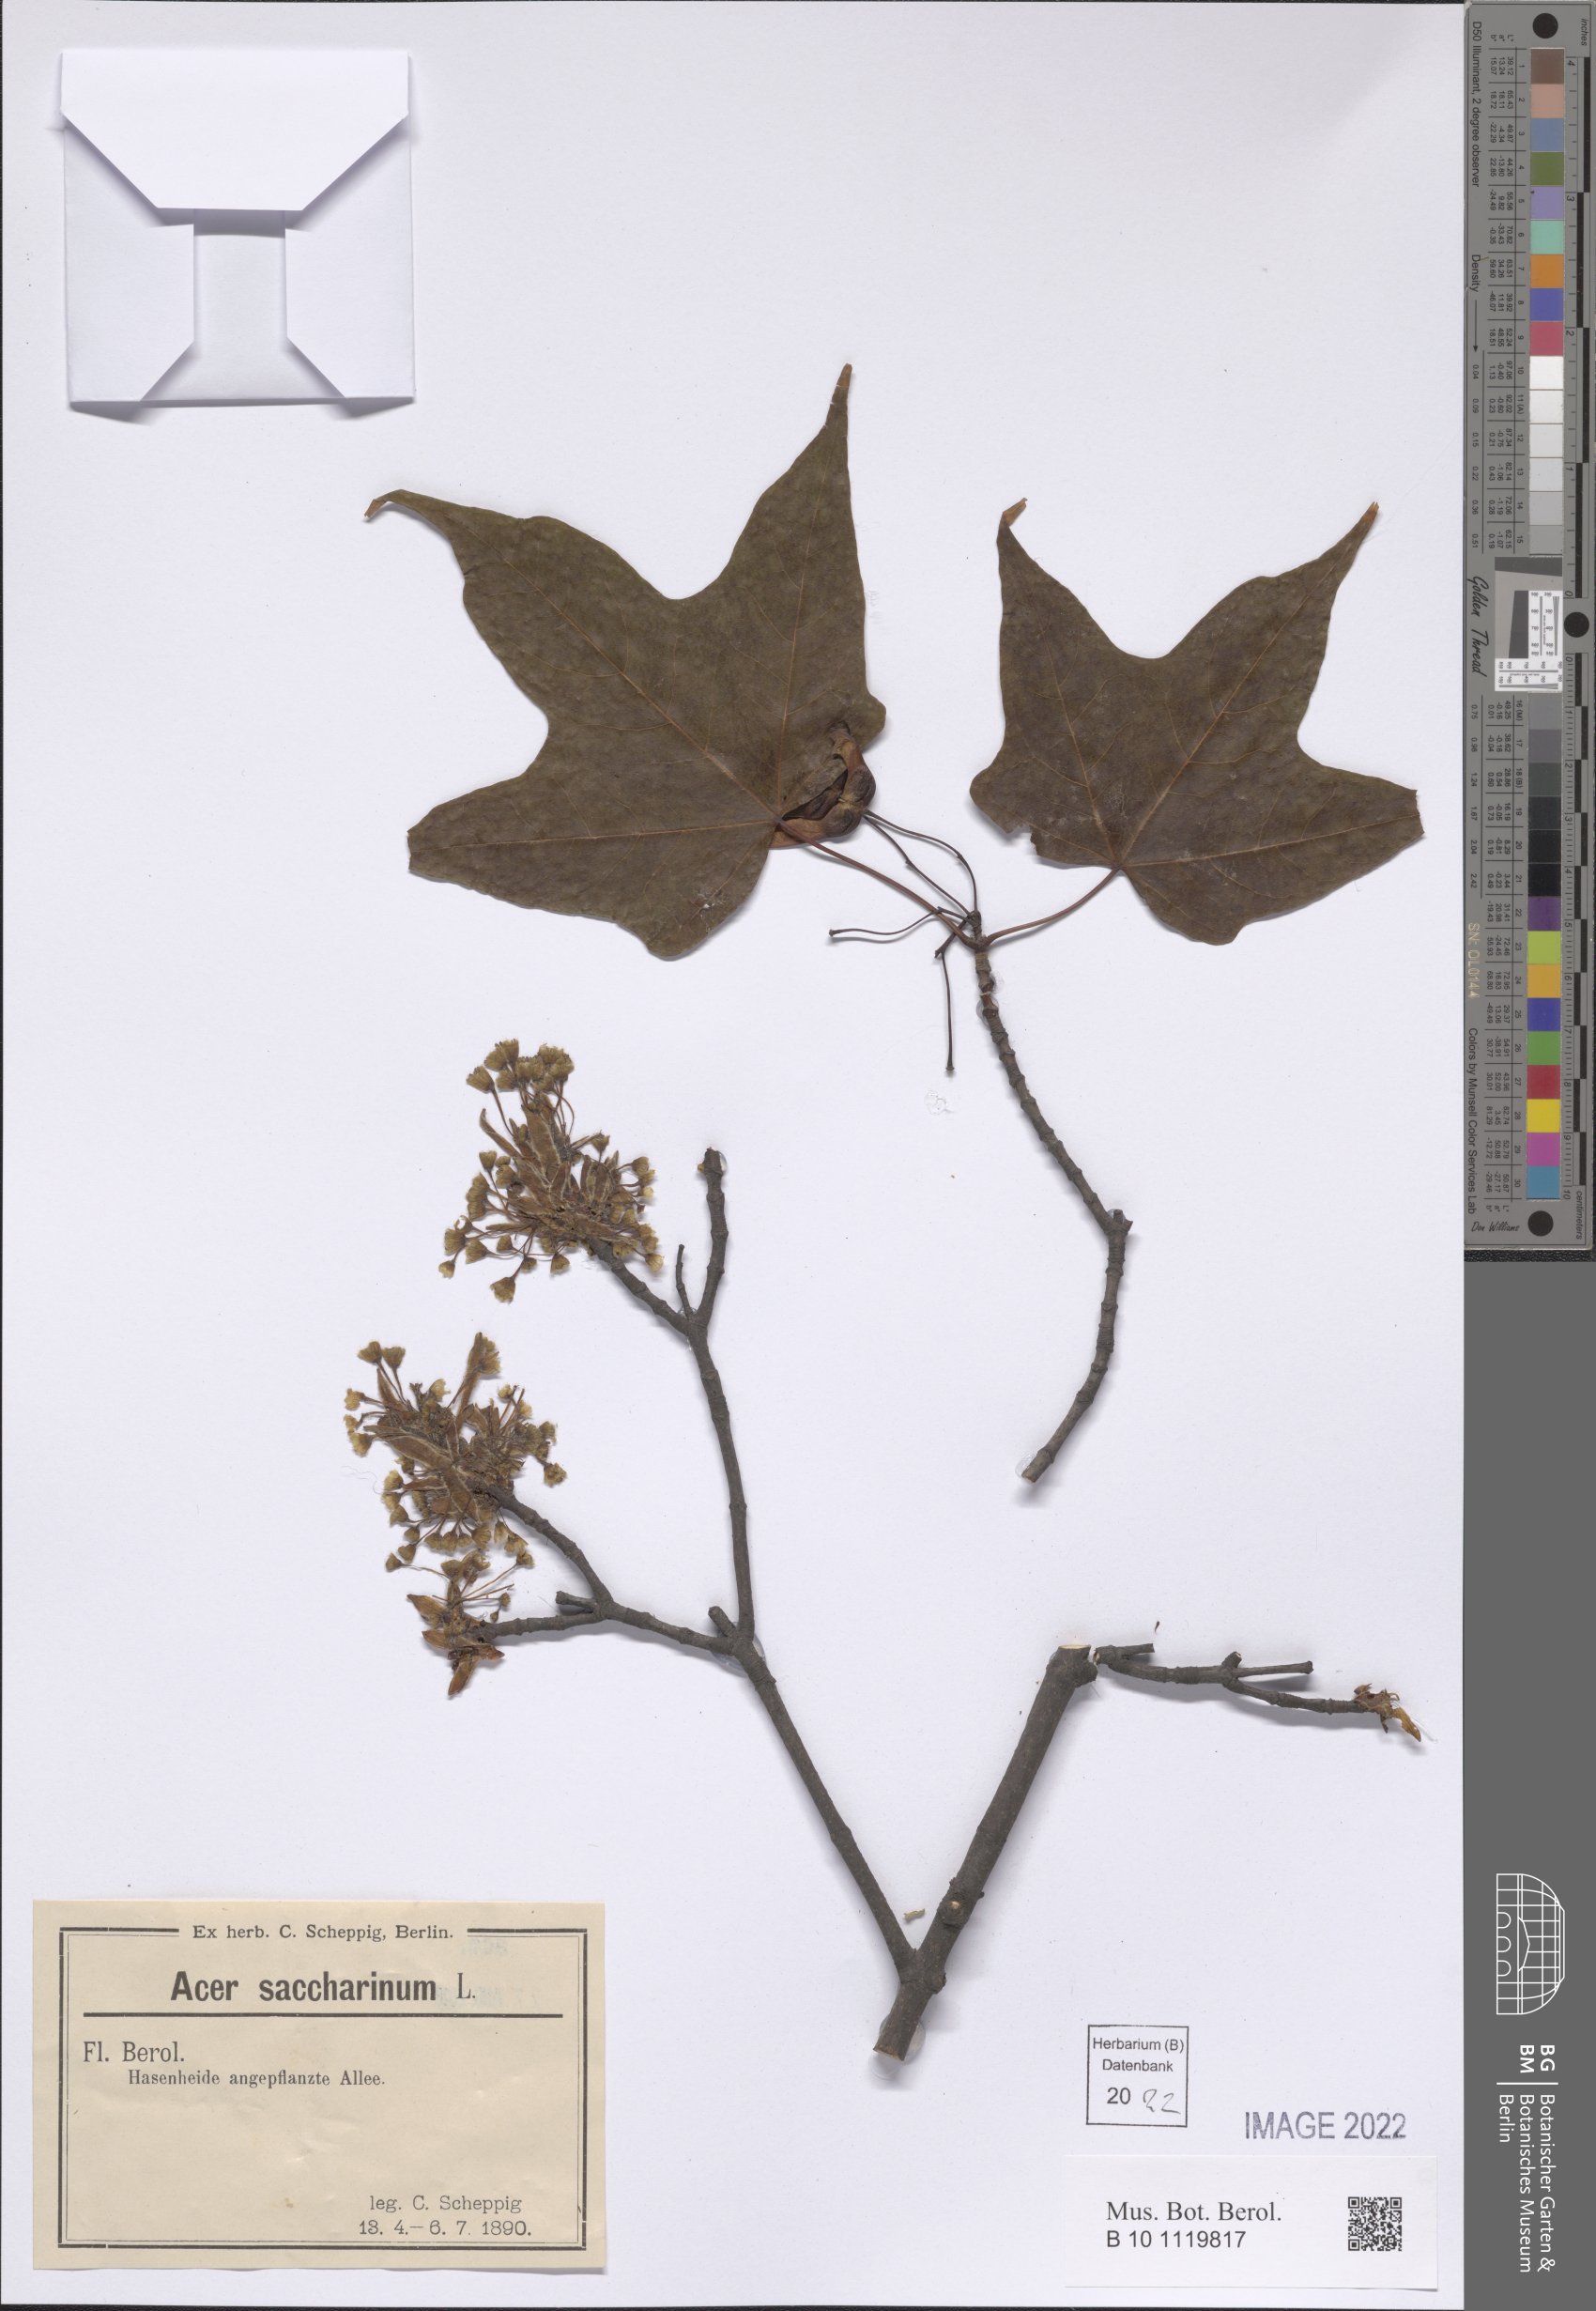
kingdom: Plantae
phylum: Tracheophyta
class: Magnoliopsida
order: Sapindales
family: Sapindaceae
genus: Acer
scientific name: Acer saccharinum
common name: Silver maple
